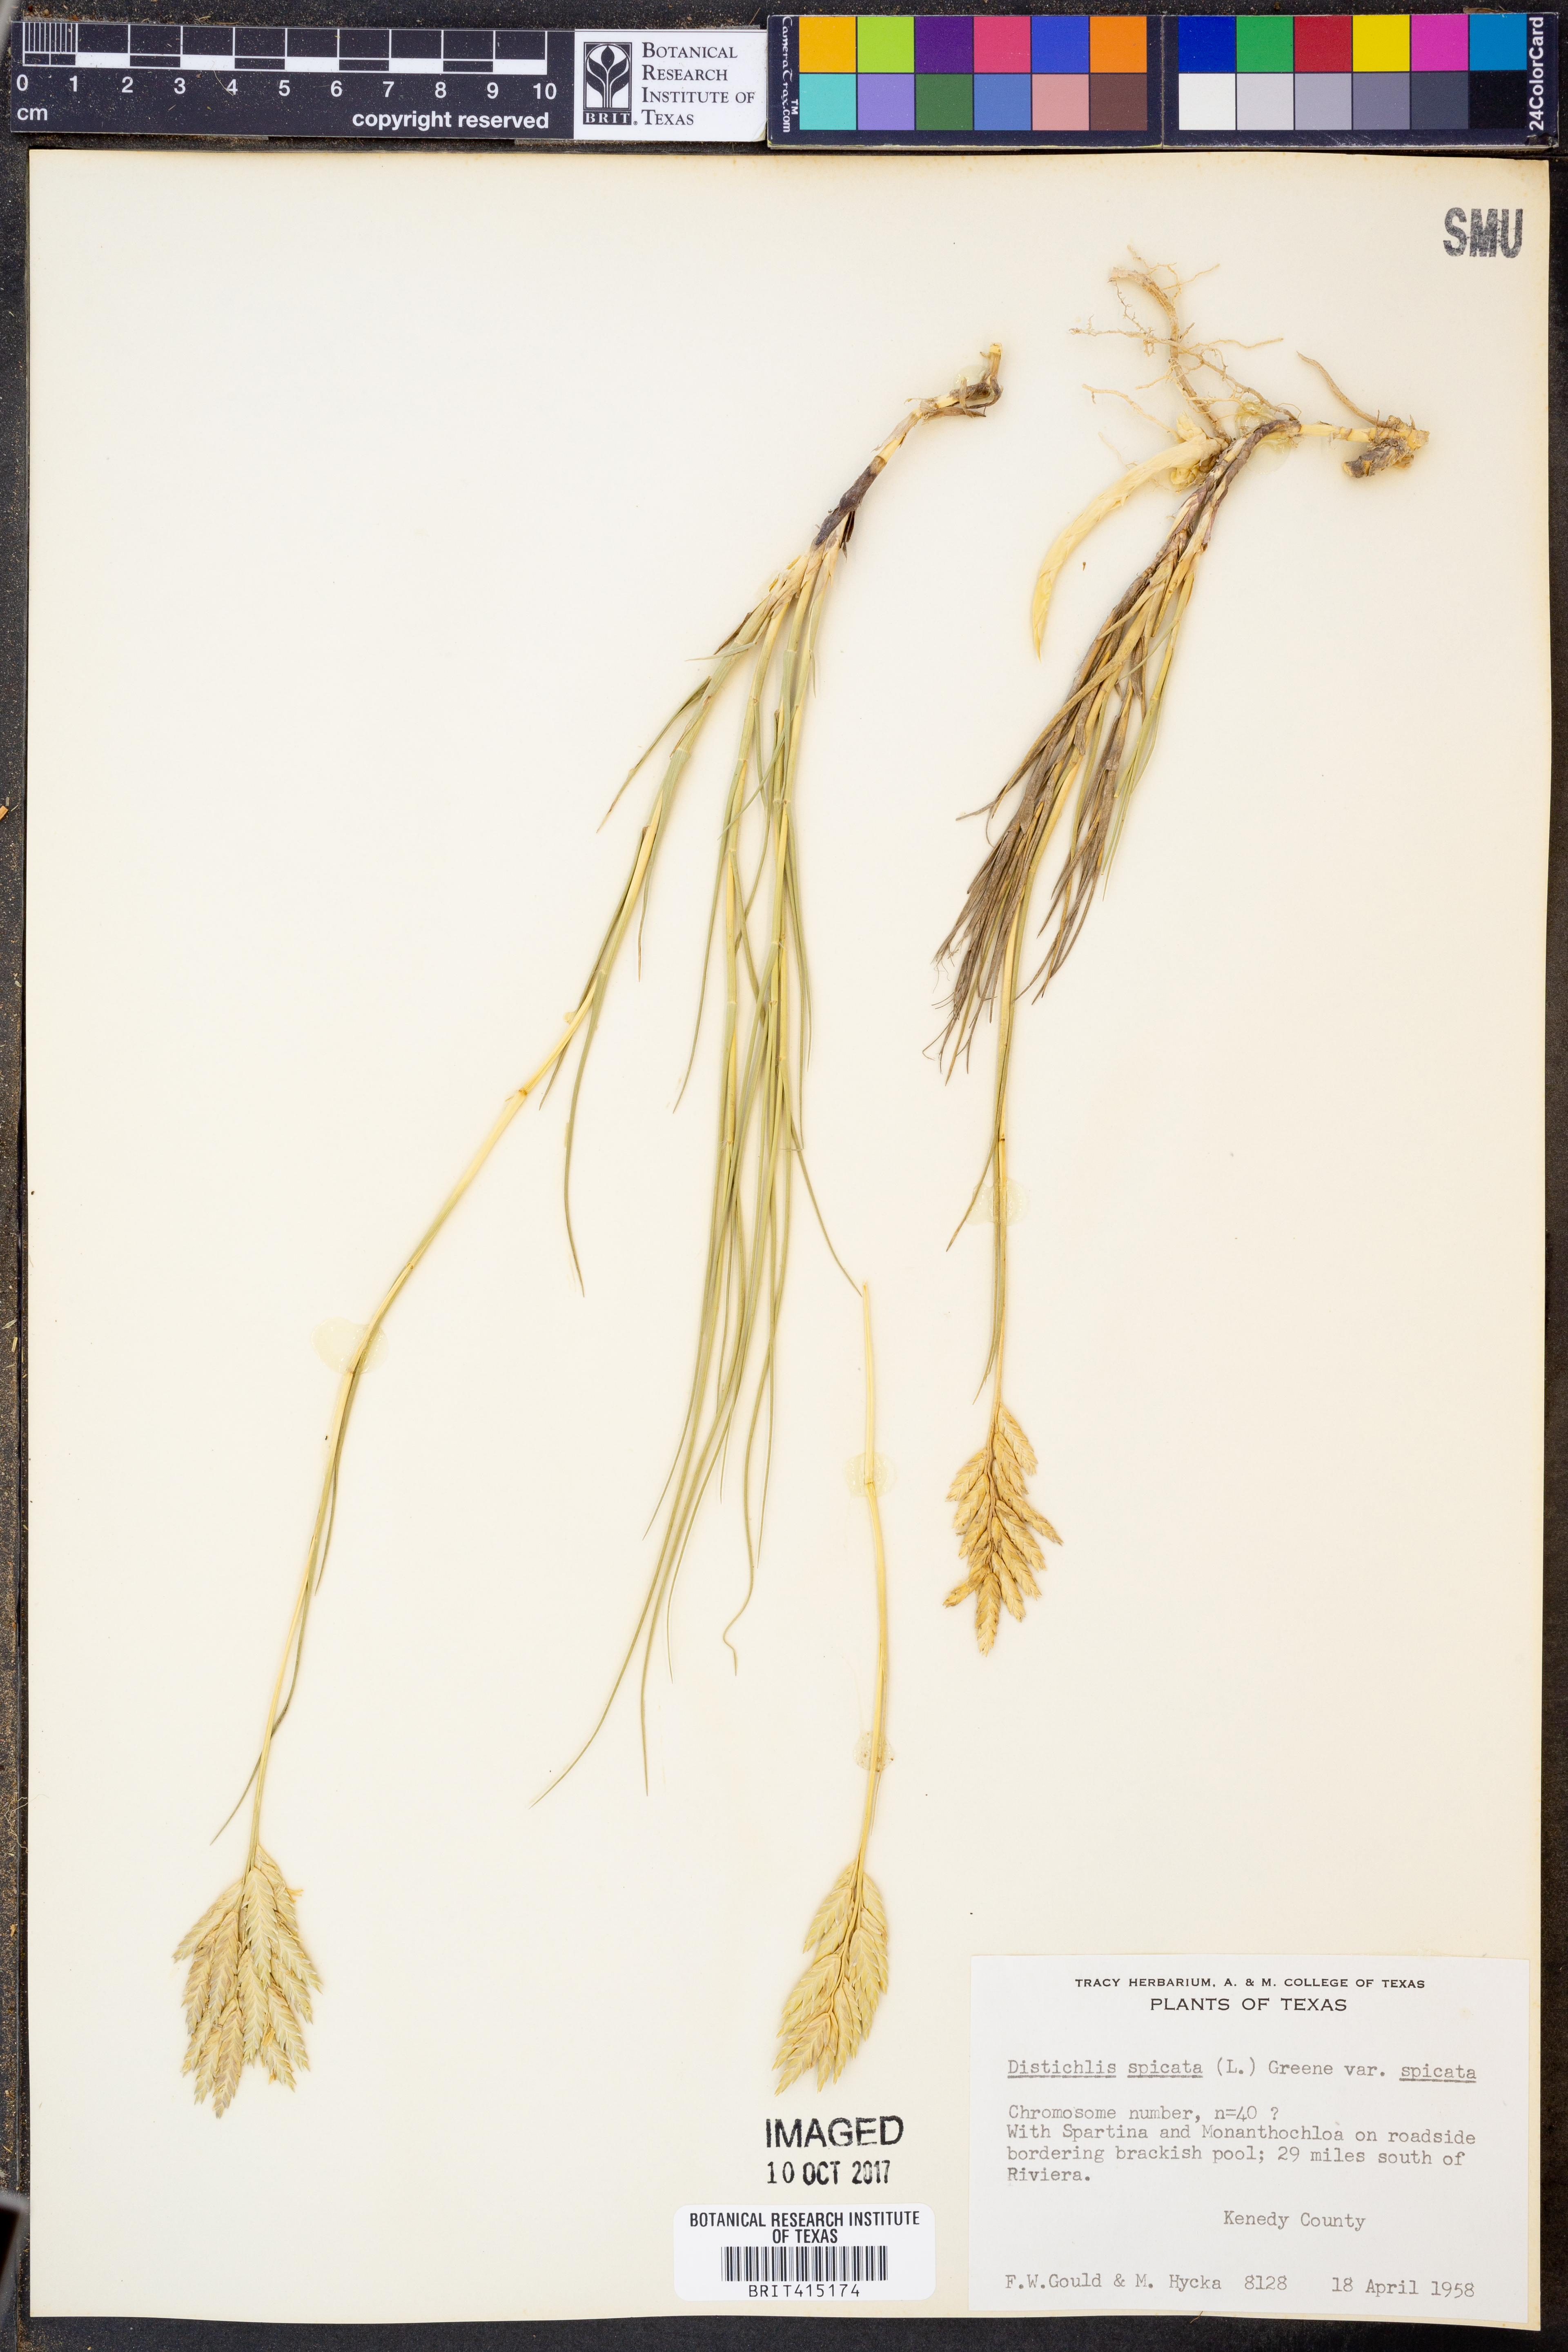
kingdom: Plantae
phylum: Tracheophyta
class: Liliopsida
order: Poales
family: Poaceae
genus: Distichlis
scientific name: Distichlis spicata
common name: Saltgrass
